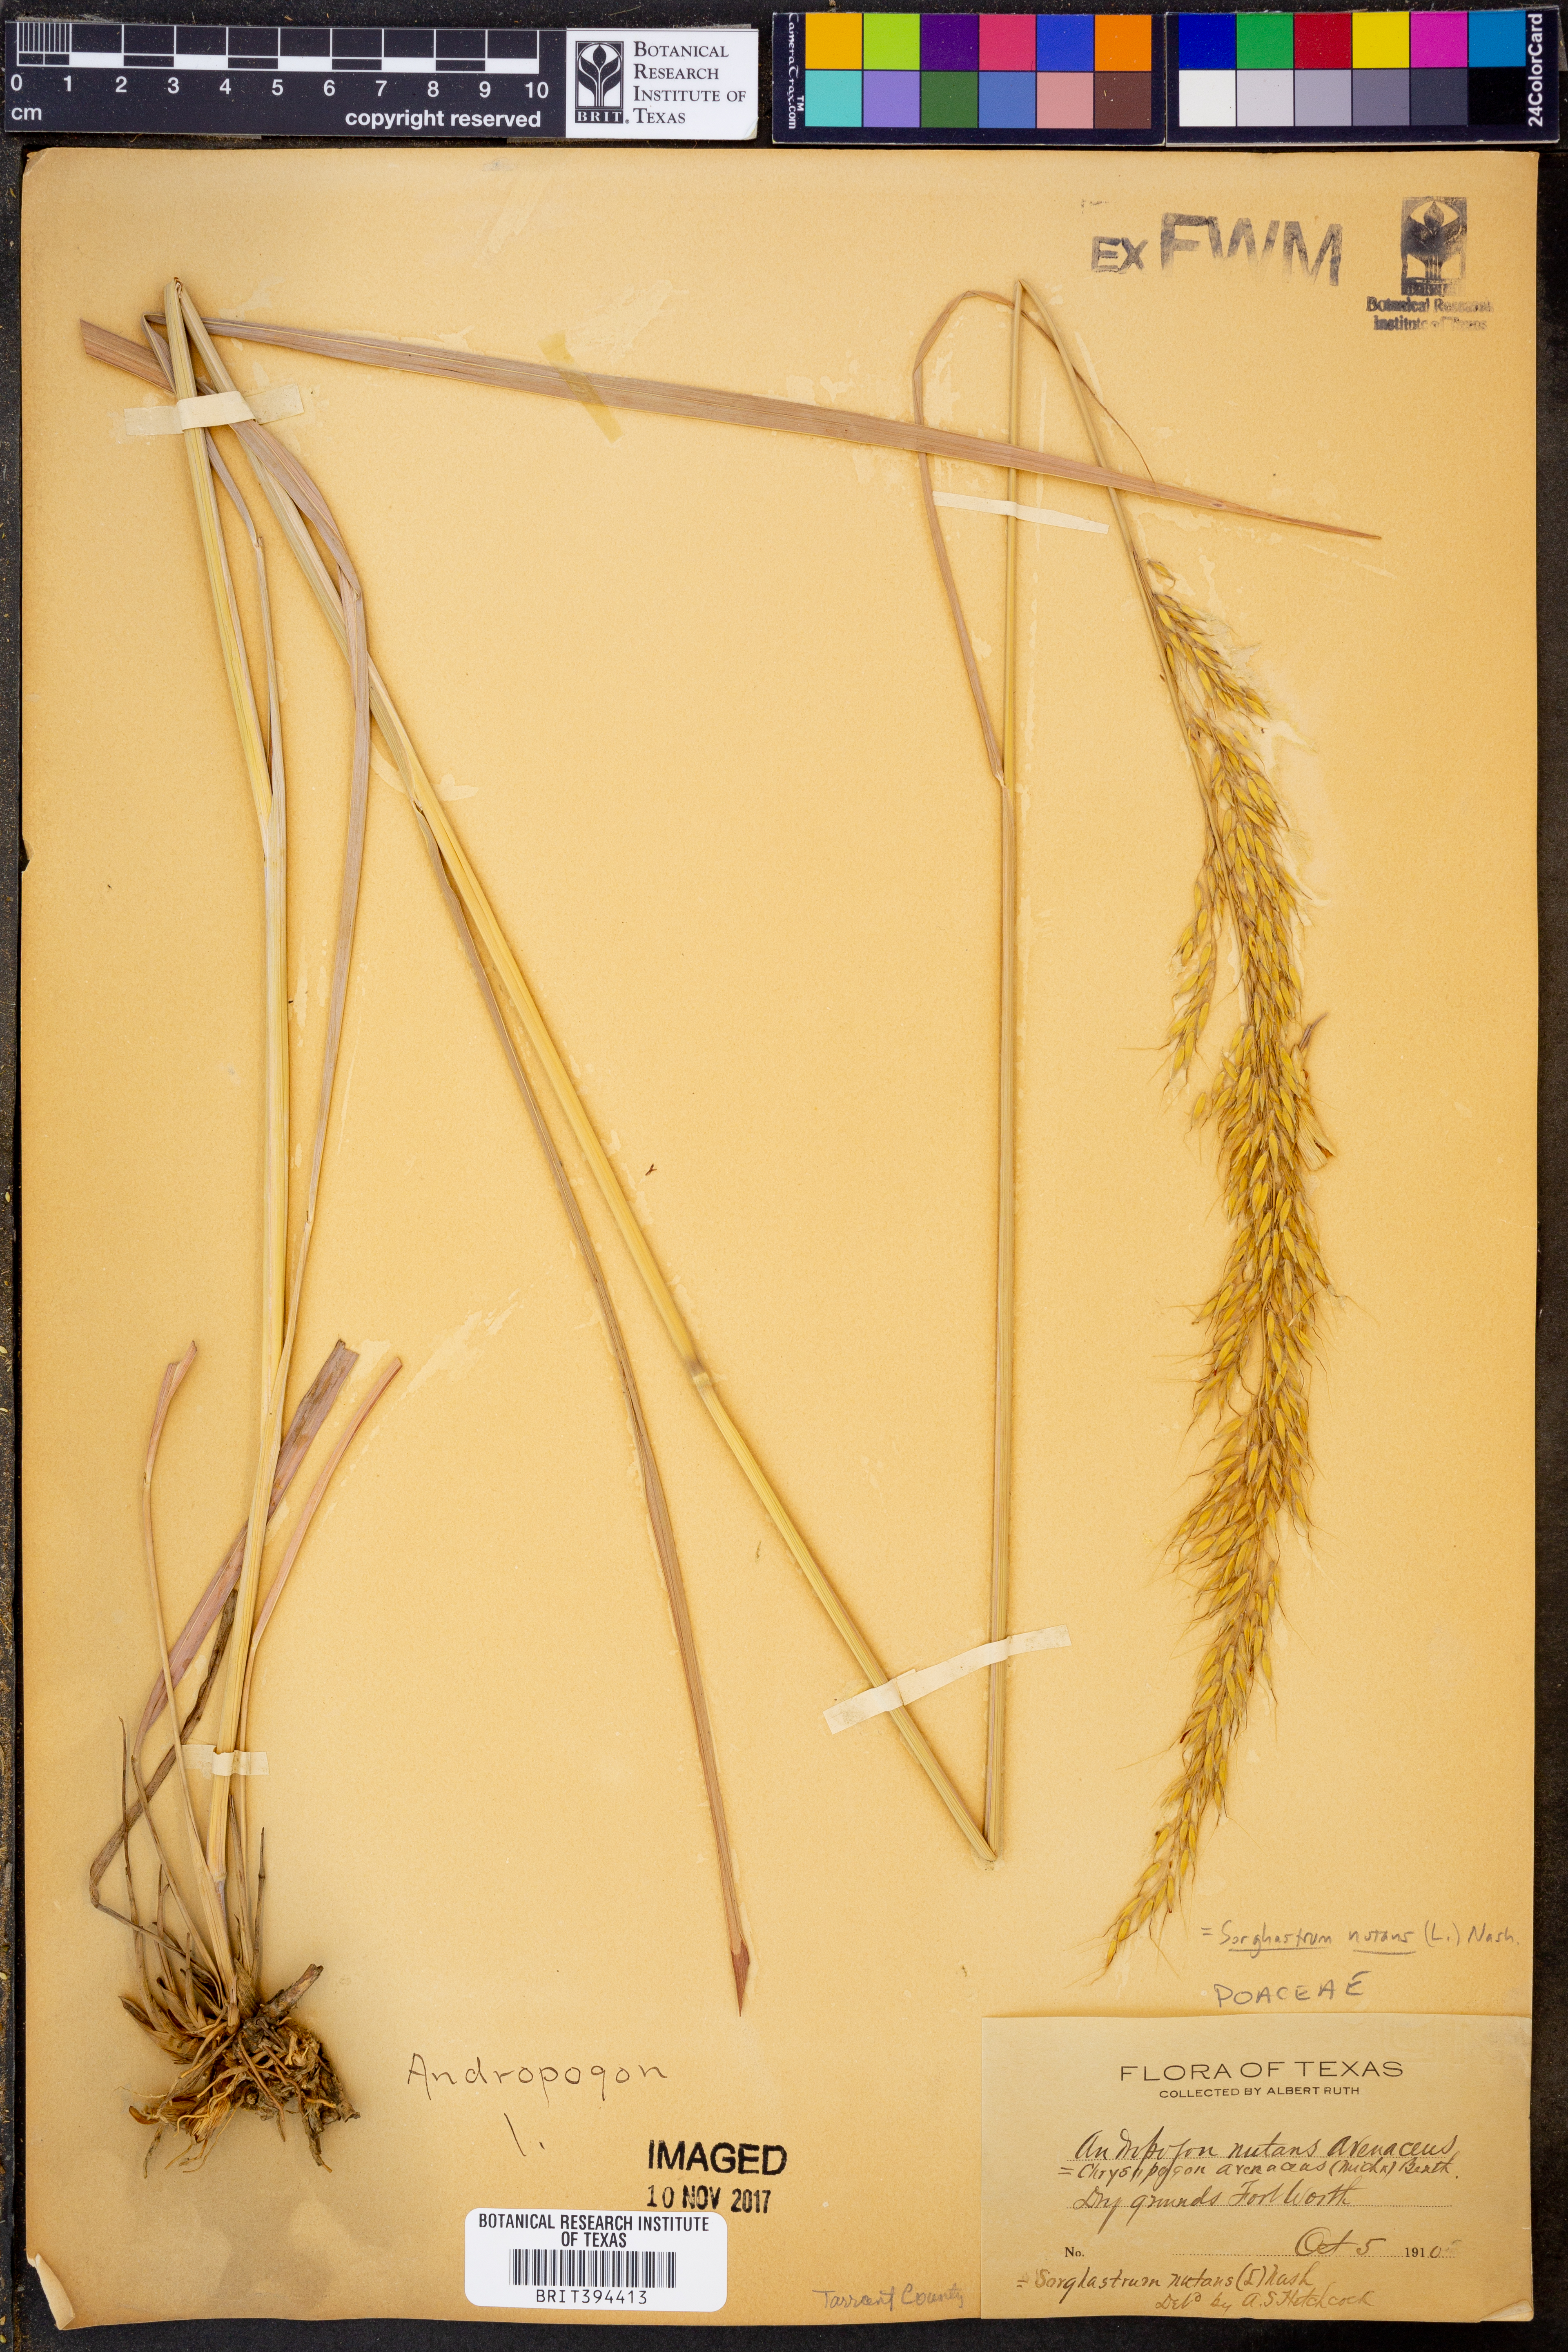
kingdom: Plantae
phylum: Tracheophyta
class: Liliopsida
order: Poales
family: Poaceae
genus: Sorghastrum
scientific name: Sorghastrum nutans
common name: Indian grass
